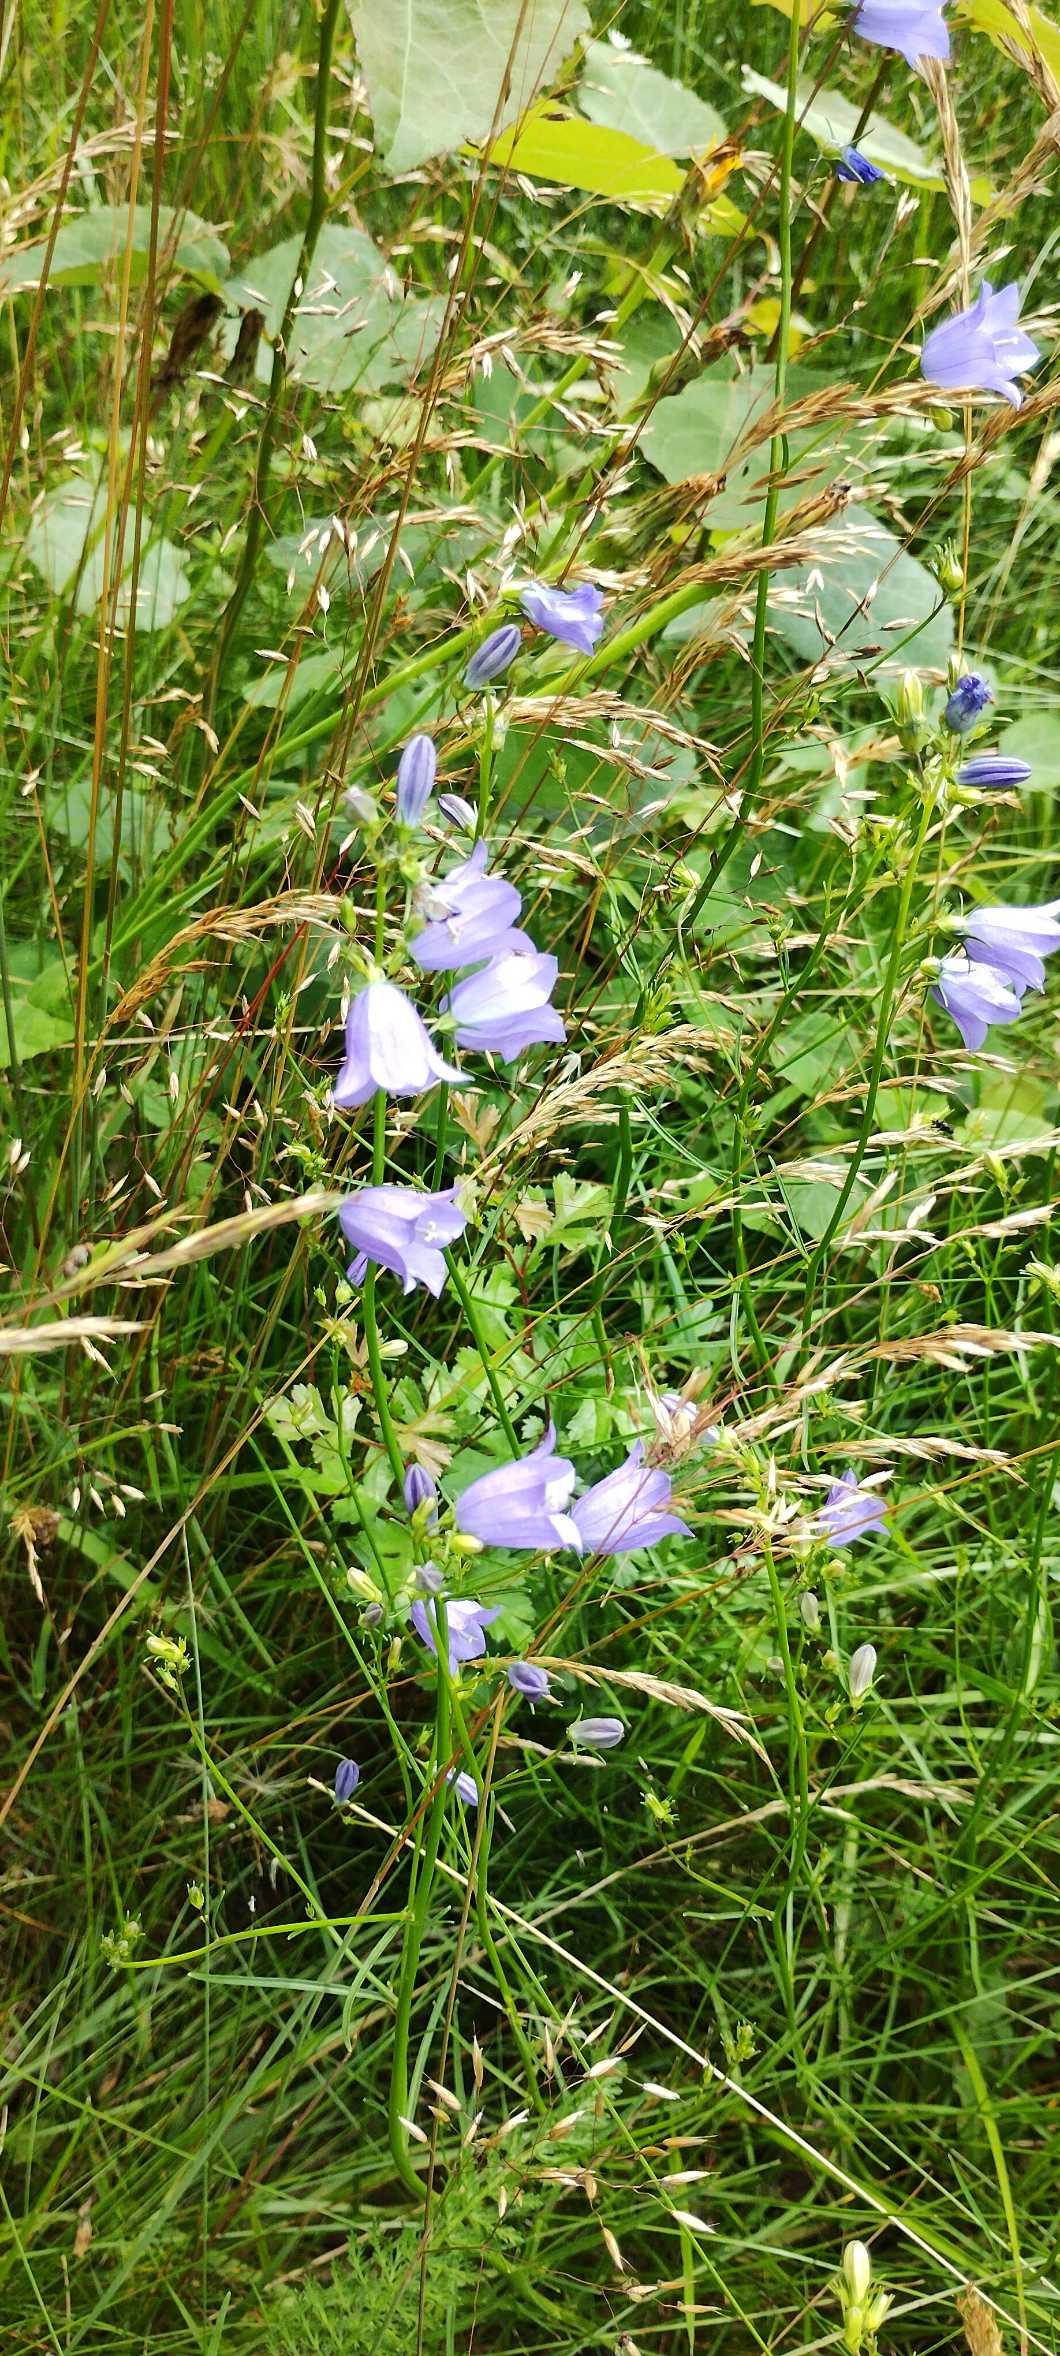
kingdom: Plantae
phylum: Tracheophyta
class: Magnoliopsida
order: Asterales
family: Campanulaceae
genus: Campanula
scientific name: Campanula rotundifolia
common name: Liden klokke
